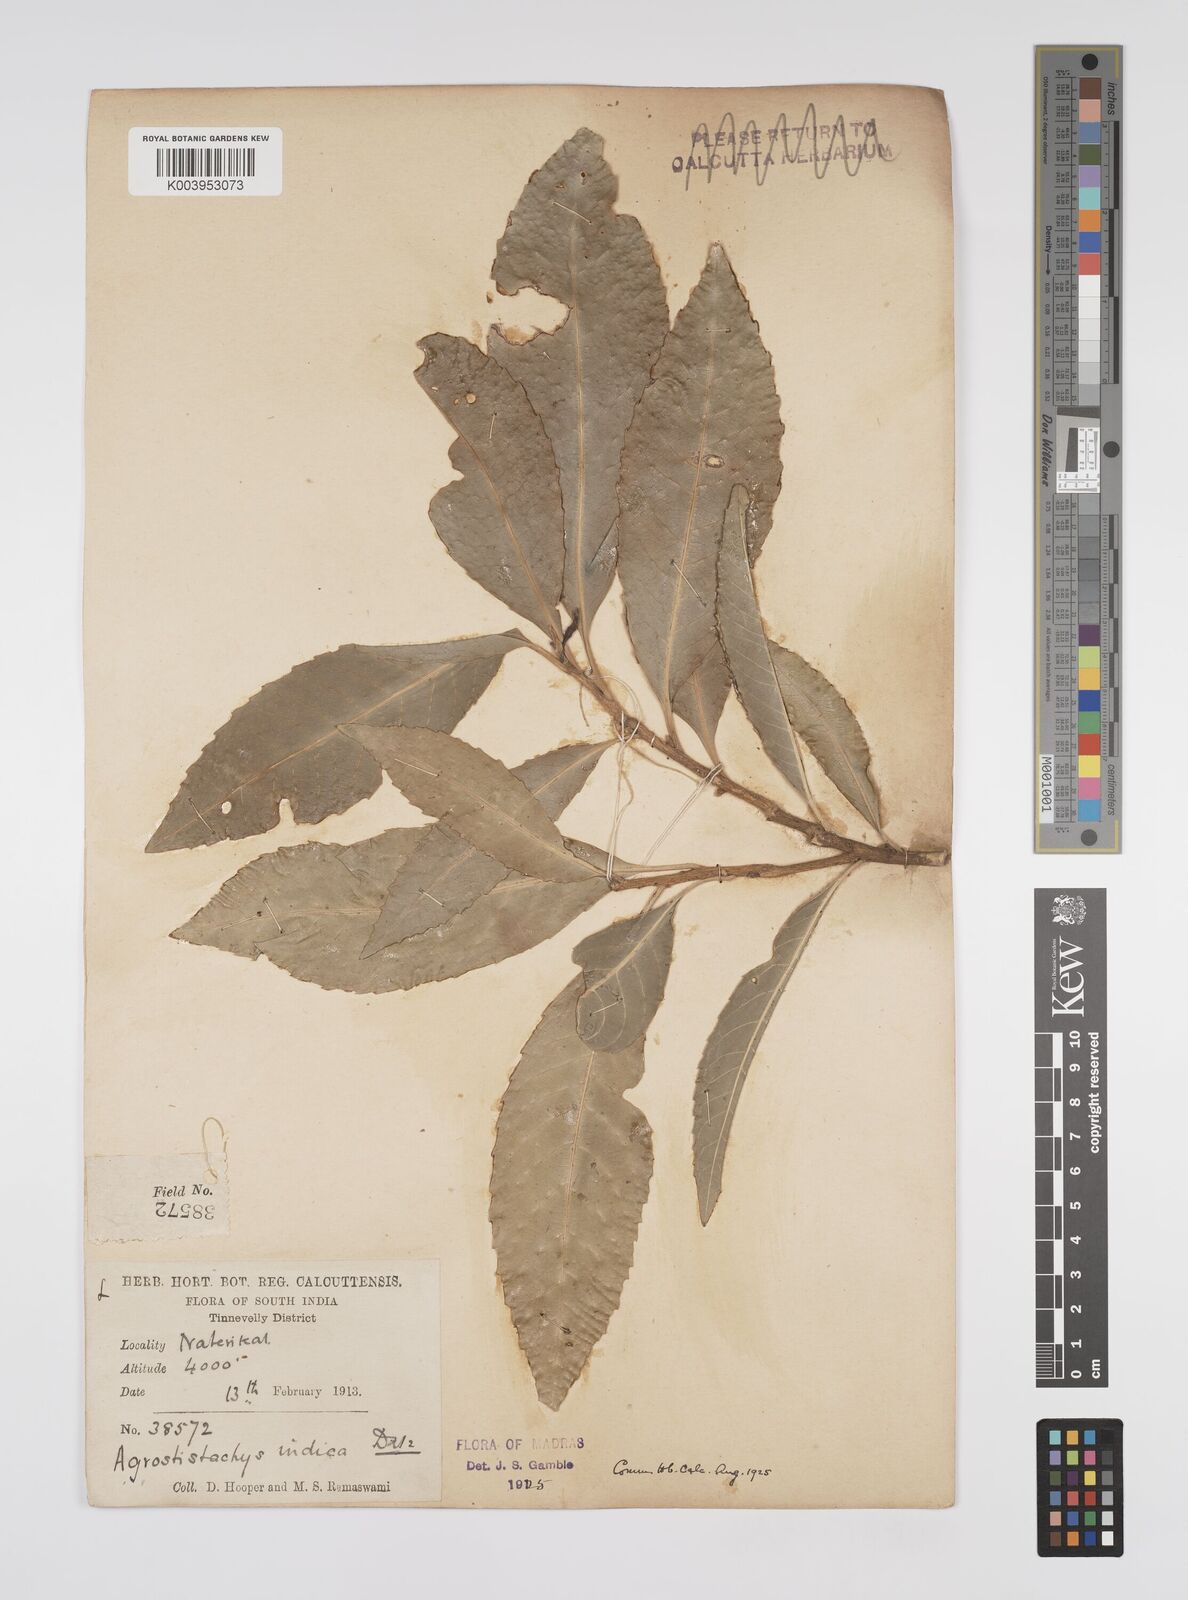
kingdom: Plantae
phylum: Tracheophyta
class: Magnoliopsida
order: Malpighiales
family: Euphorbiaceae
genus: Agrostistachys
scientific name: Agrostistachys indica
